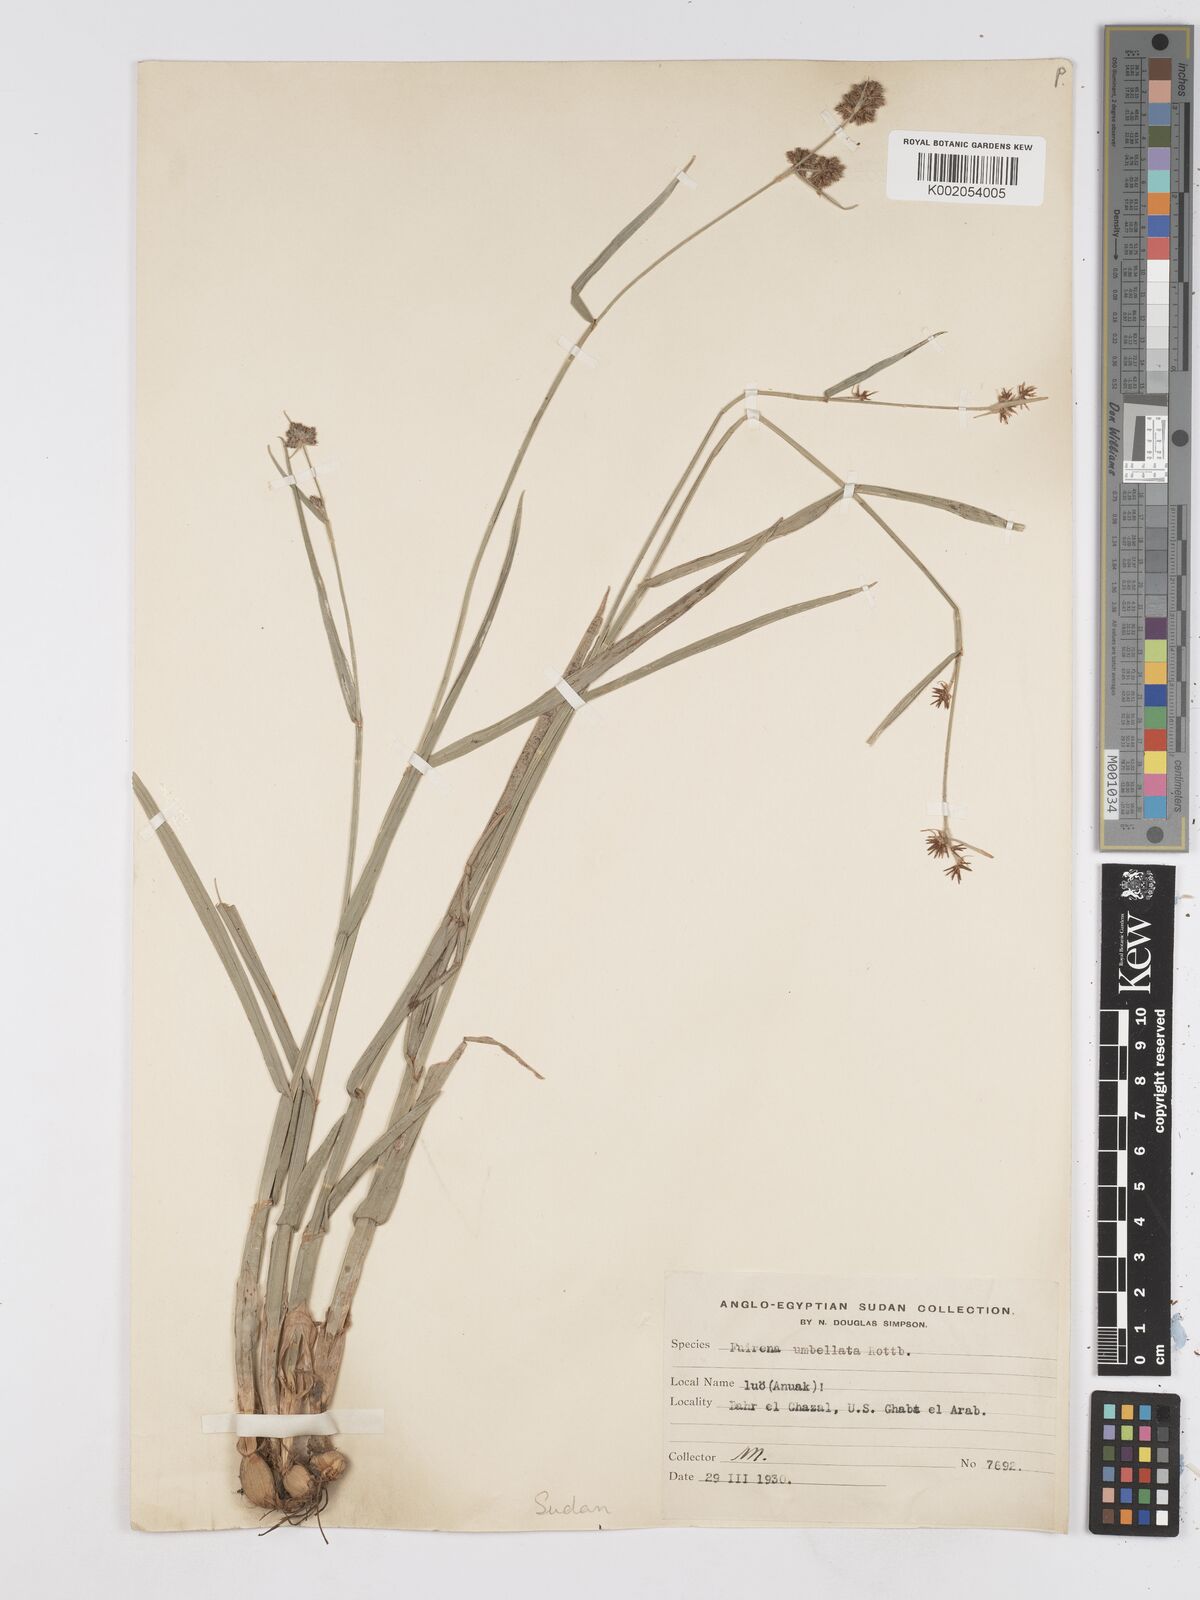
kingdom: Plantae
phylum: Tracheophyta
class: Liliopsida
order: Poales
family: Cyperaceae
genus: Fuirena
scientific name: Fuirena umbellata
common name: Yefen
